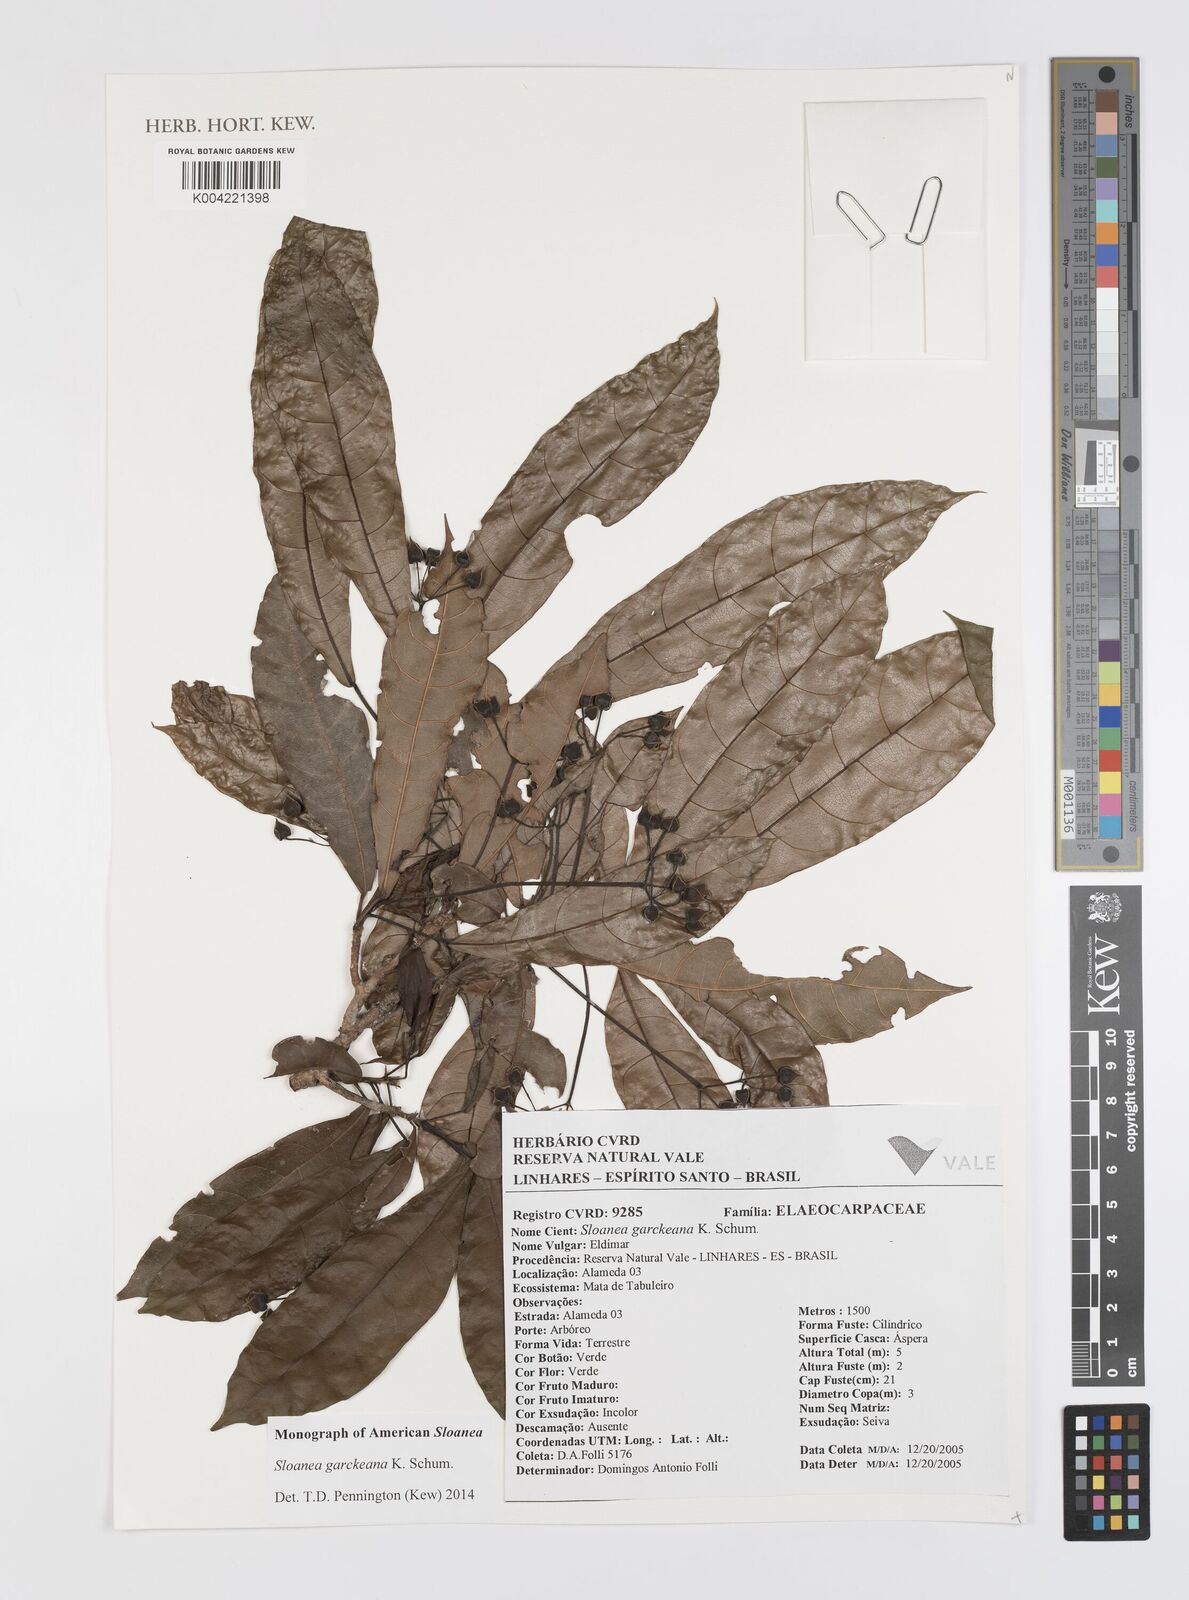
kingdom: Plantae
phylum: Tracheophyta
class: Magnoliopsida
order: Oxalidales
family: Elaeocarpaceae
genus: Sloanea
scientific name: Sloanea garckeana
